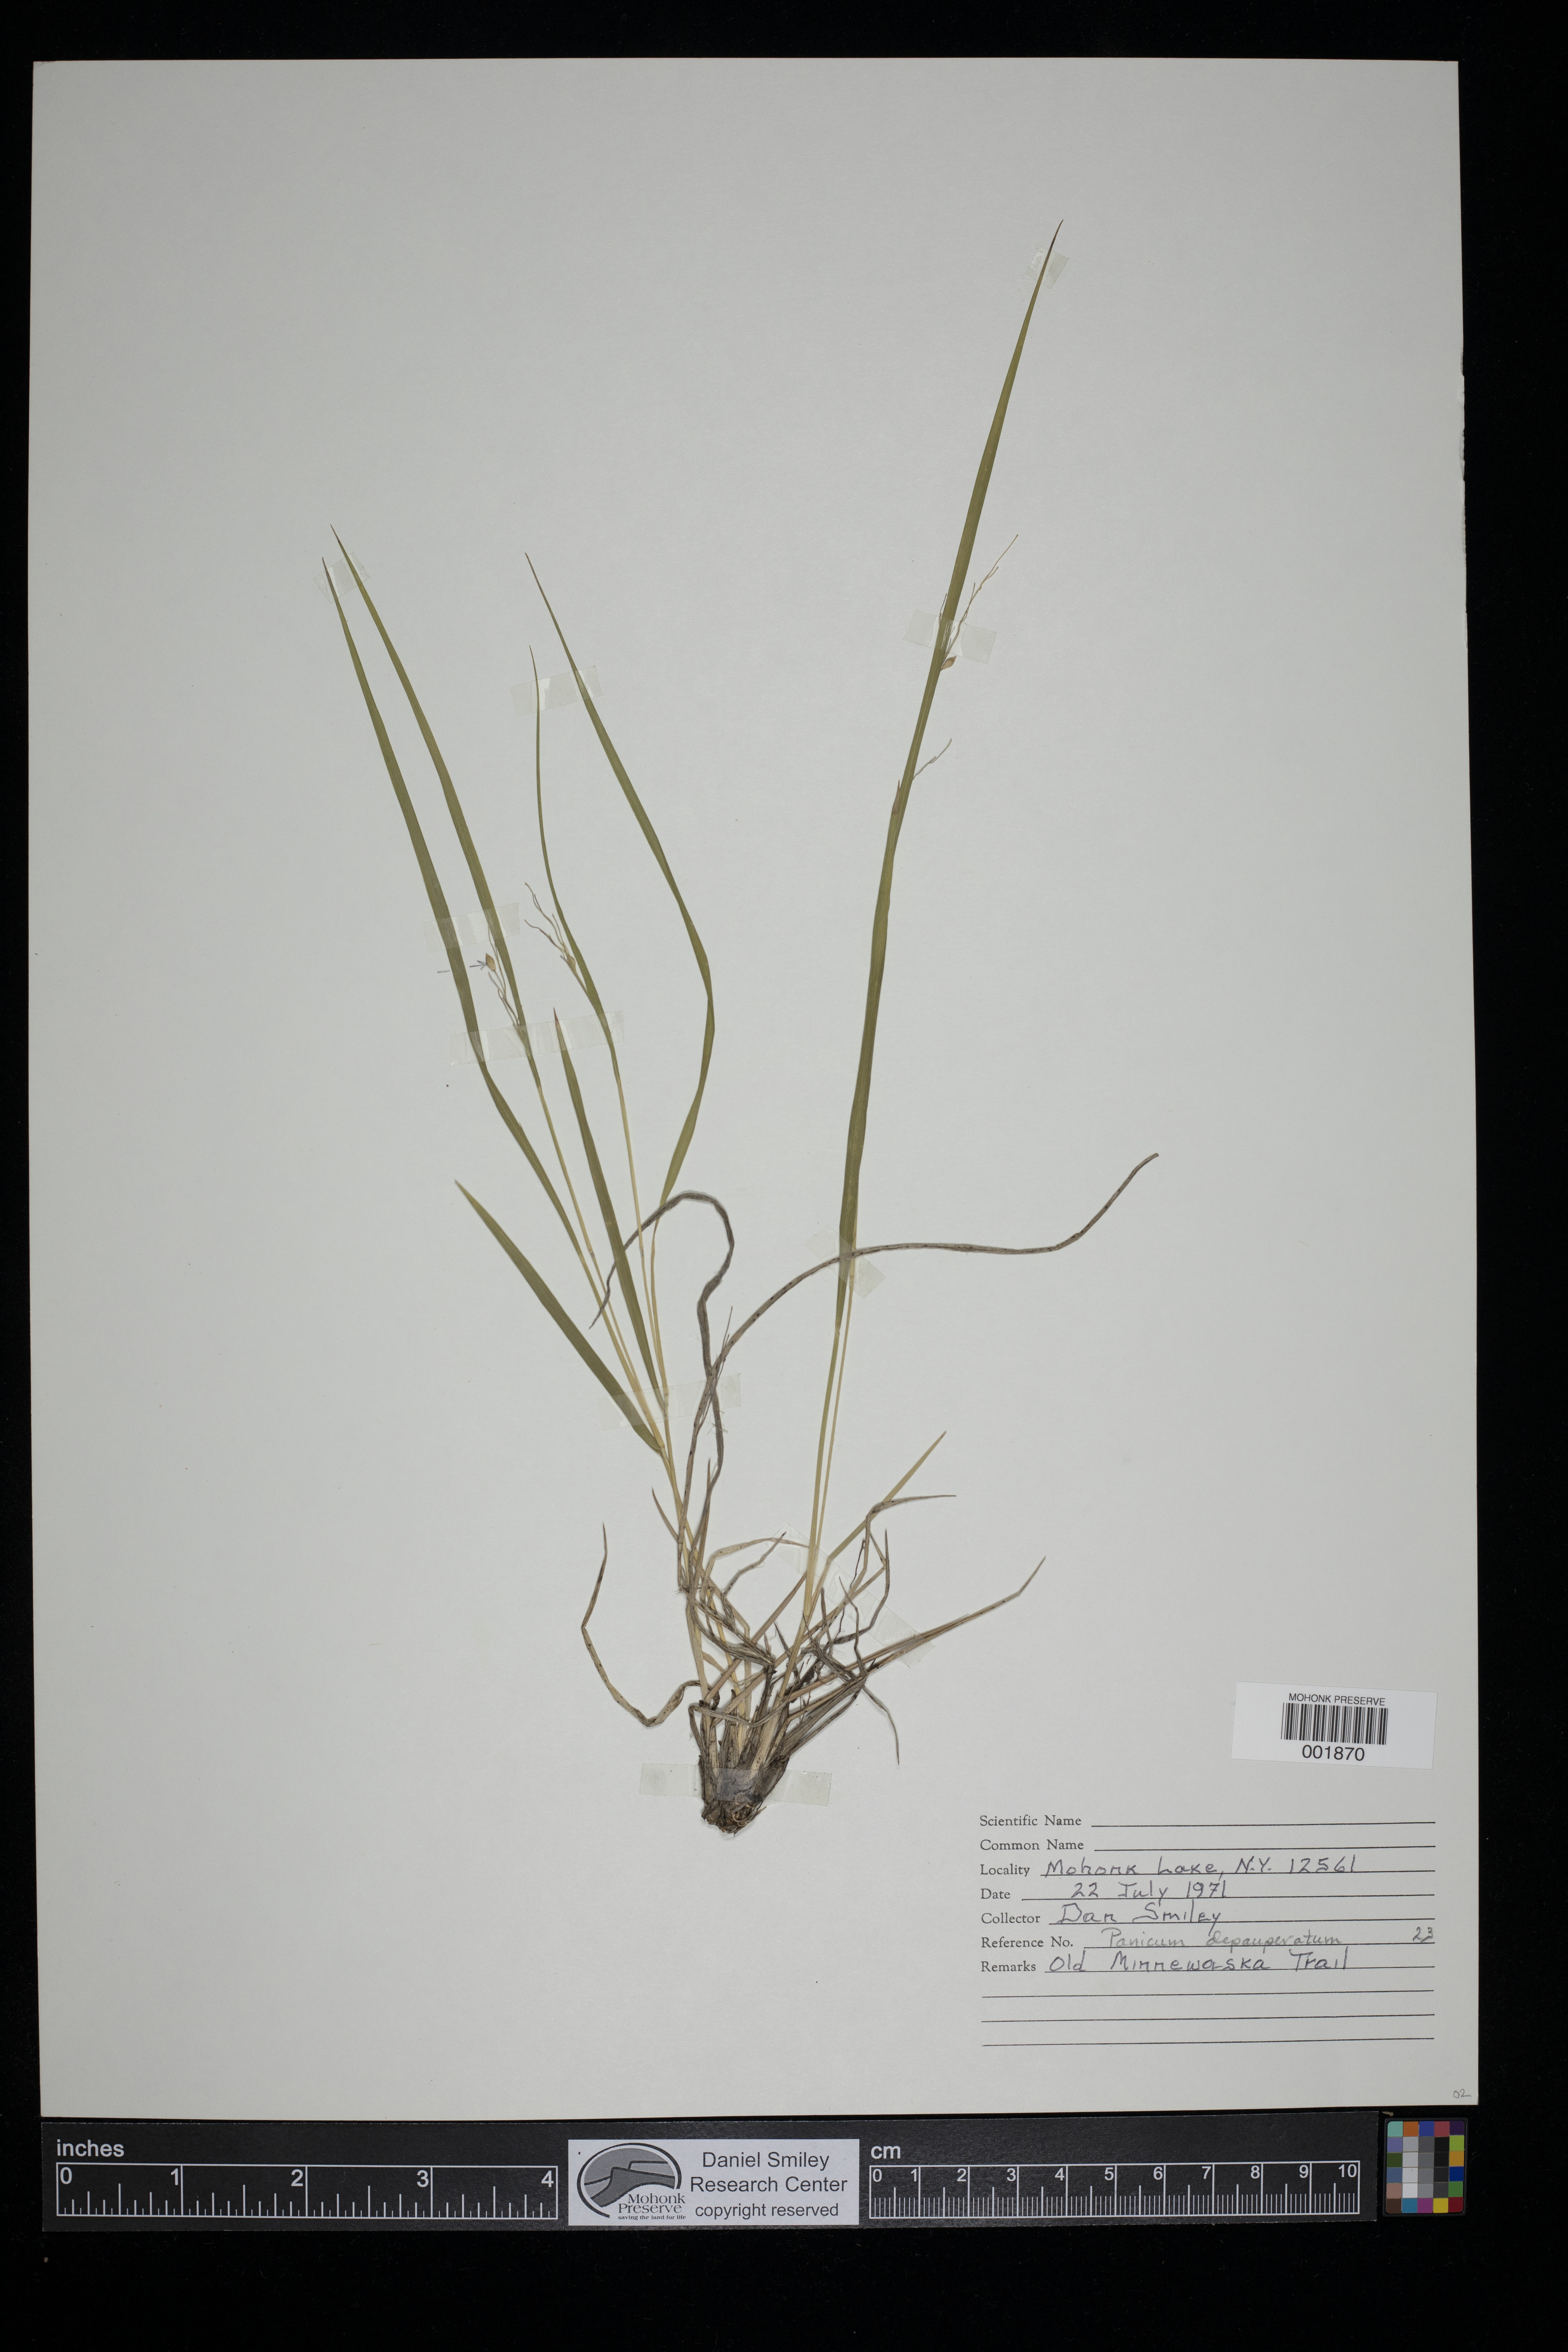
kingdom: Plantae
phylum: Tracheophyta
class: Liliopsida
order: Poales
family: Poaceae
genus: Dichanthelium
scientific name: Dichanthelium depauperatum
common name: Depauperate panicgrass
